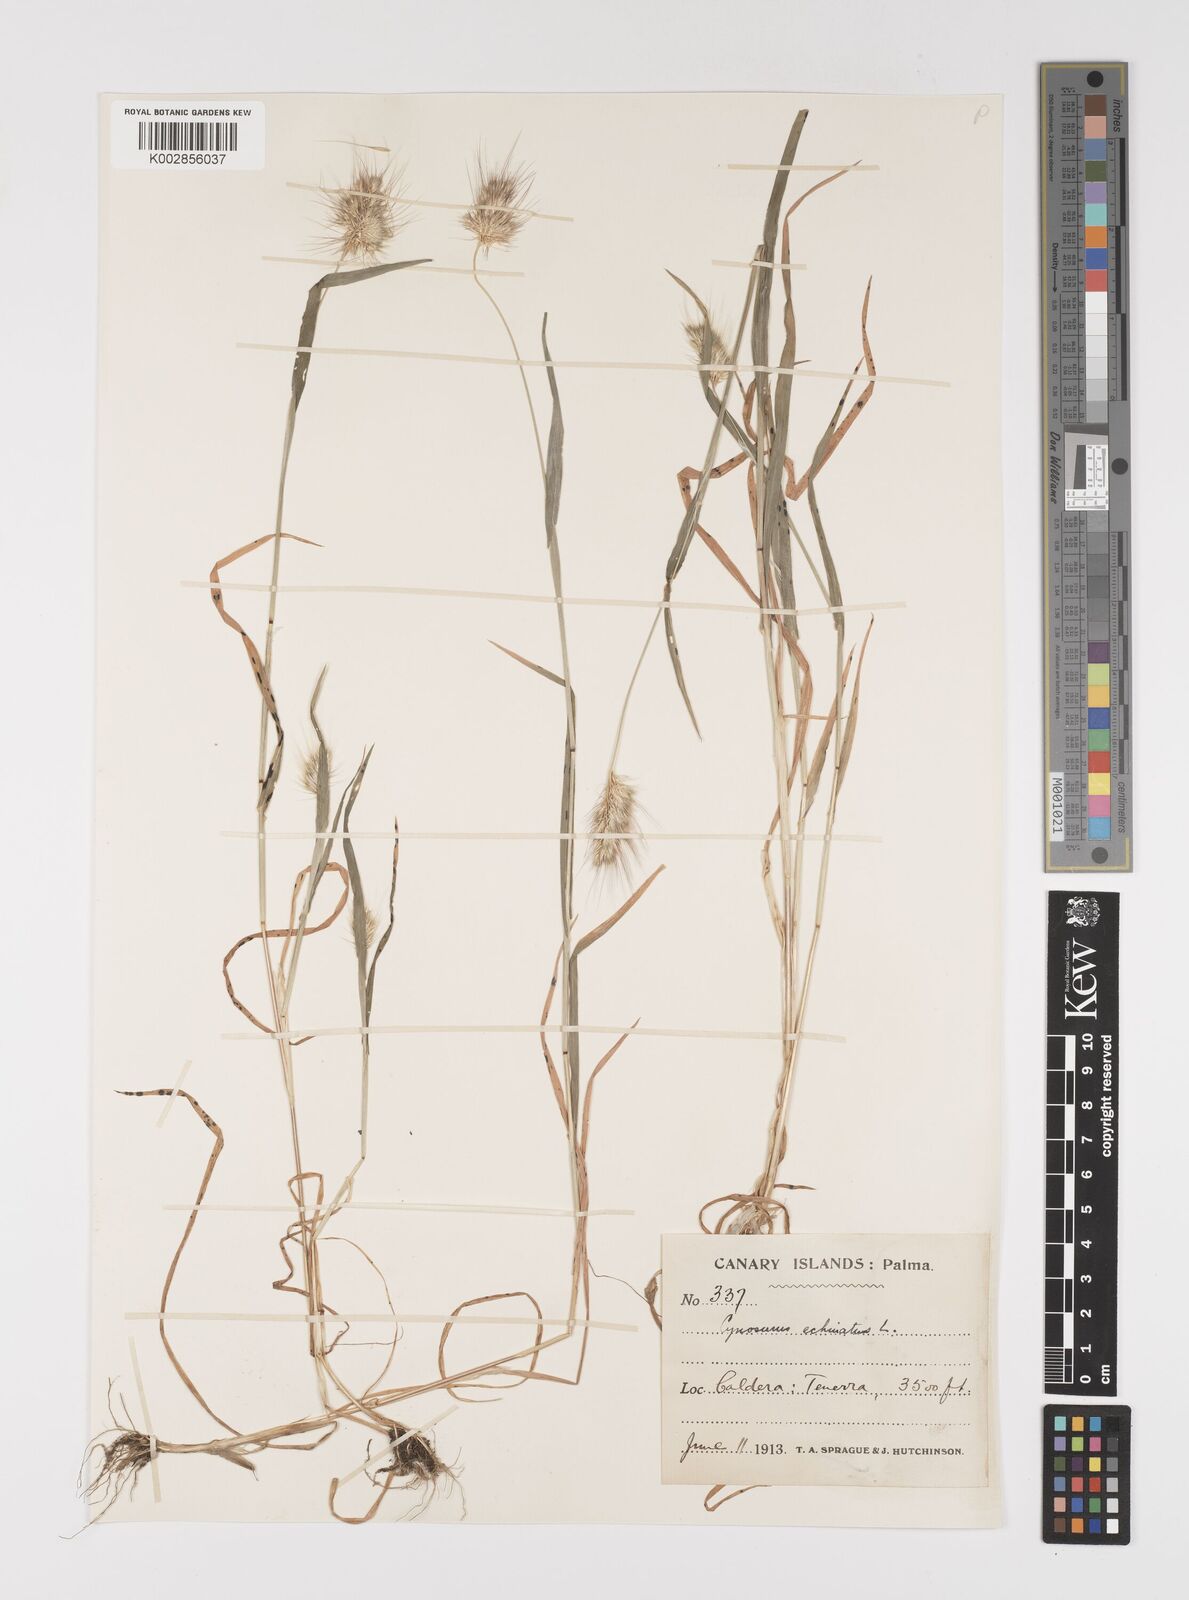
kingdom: Plantae
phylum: Tracheophyta
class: Liliopsida
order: Poales
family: Poaceae
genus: Cynosurus
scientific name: Cynosurus echinatus
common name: Rough dog's-tail
